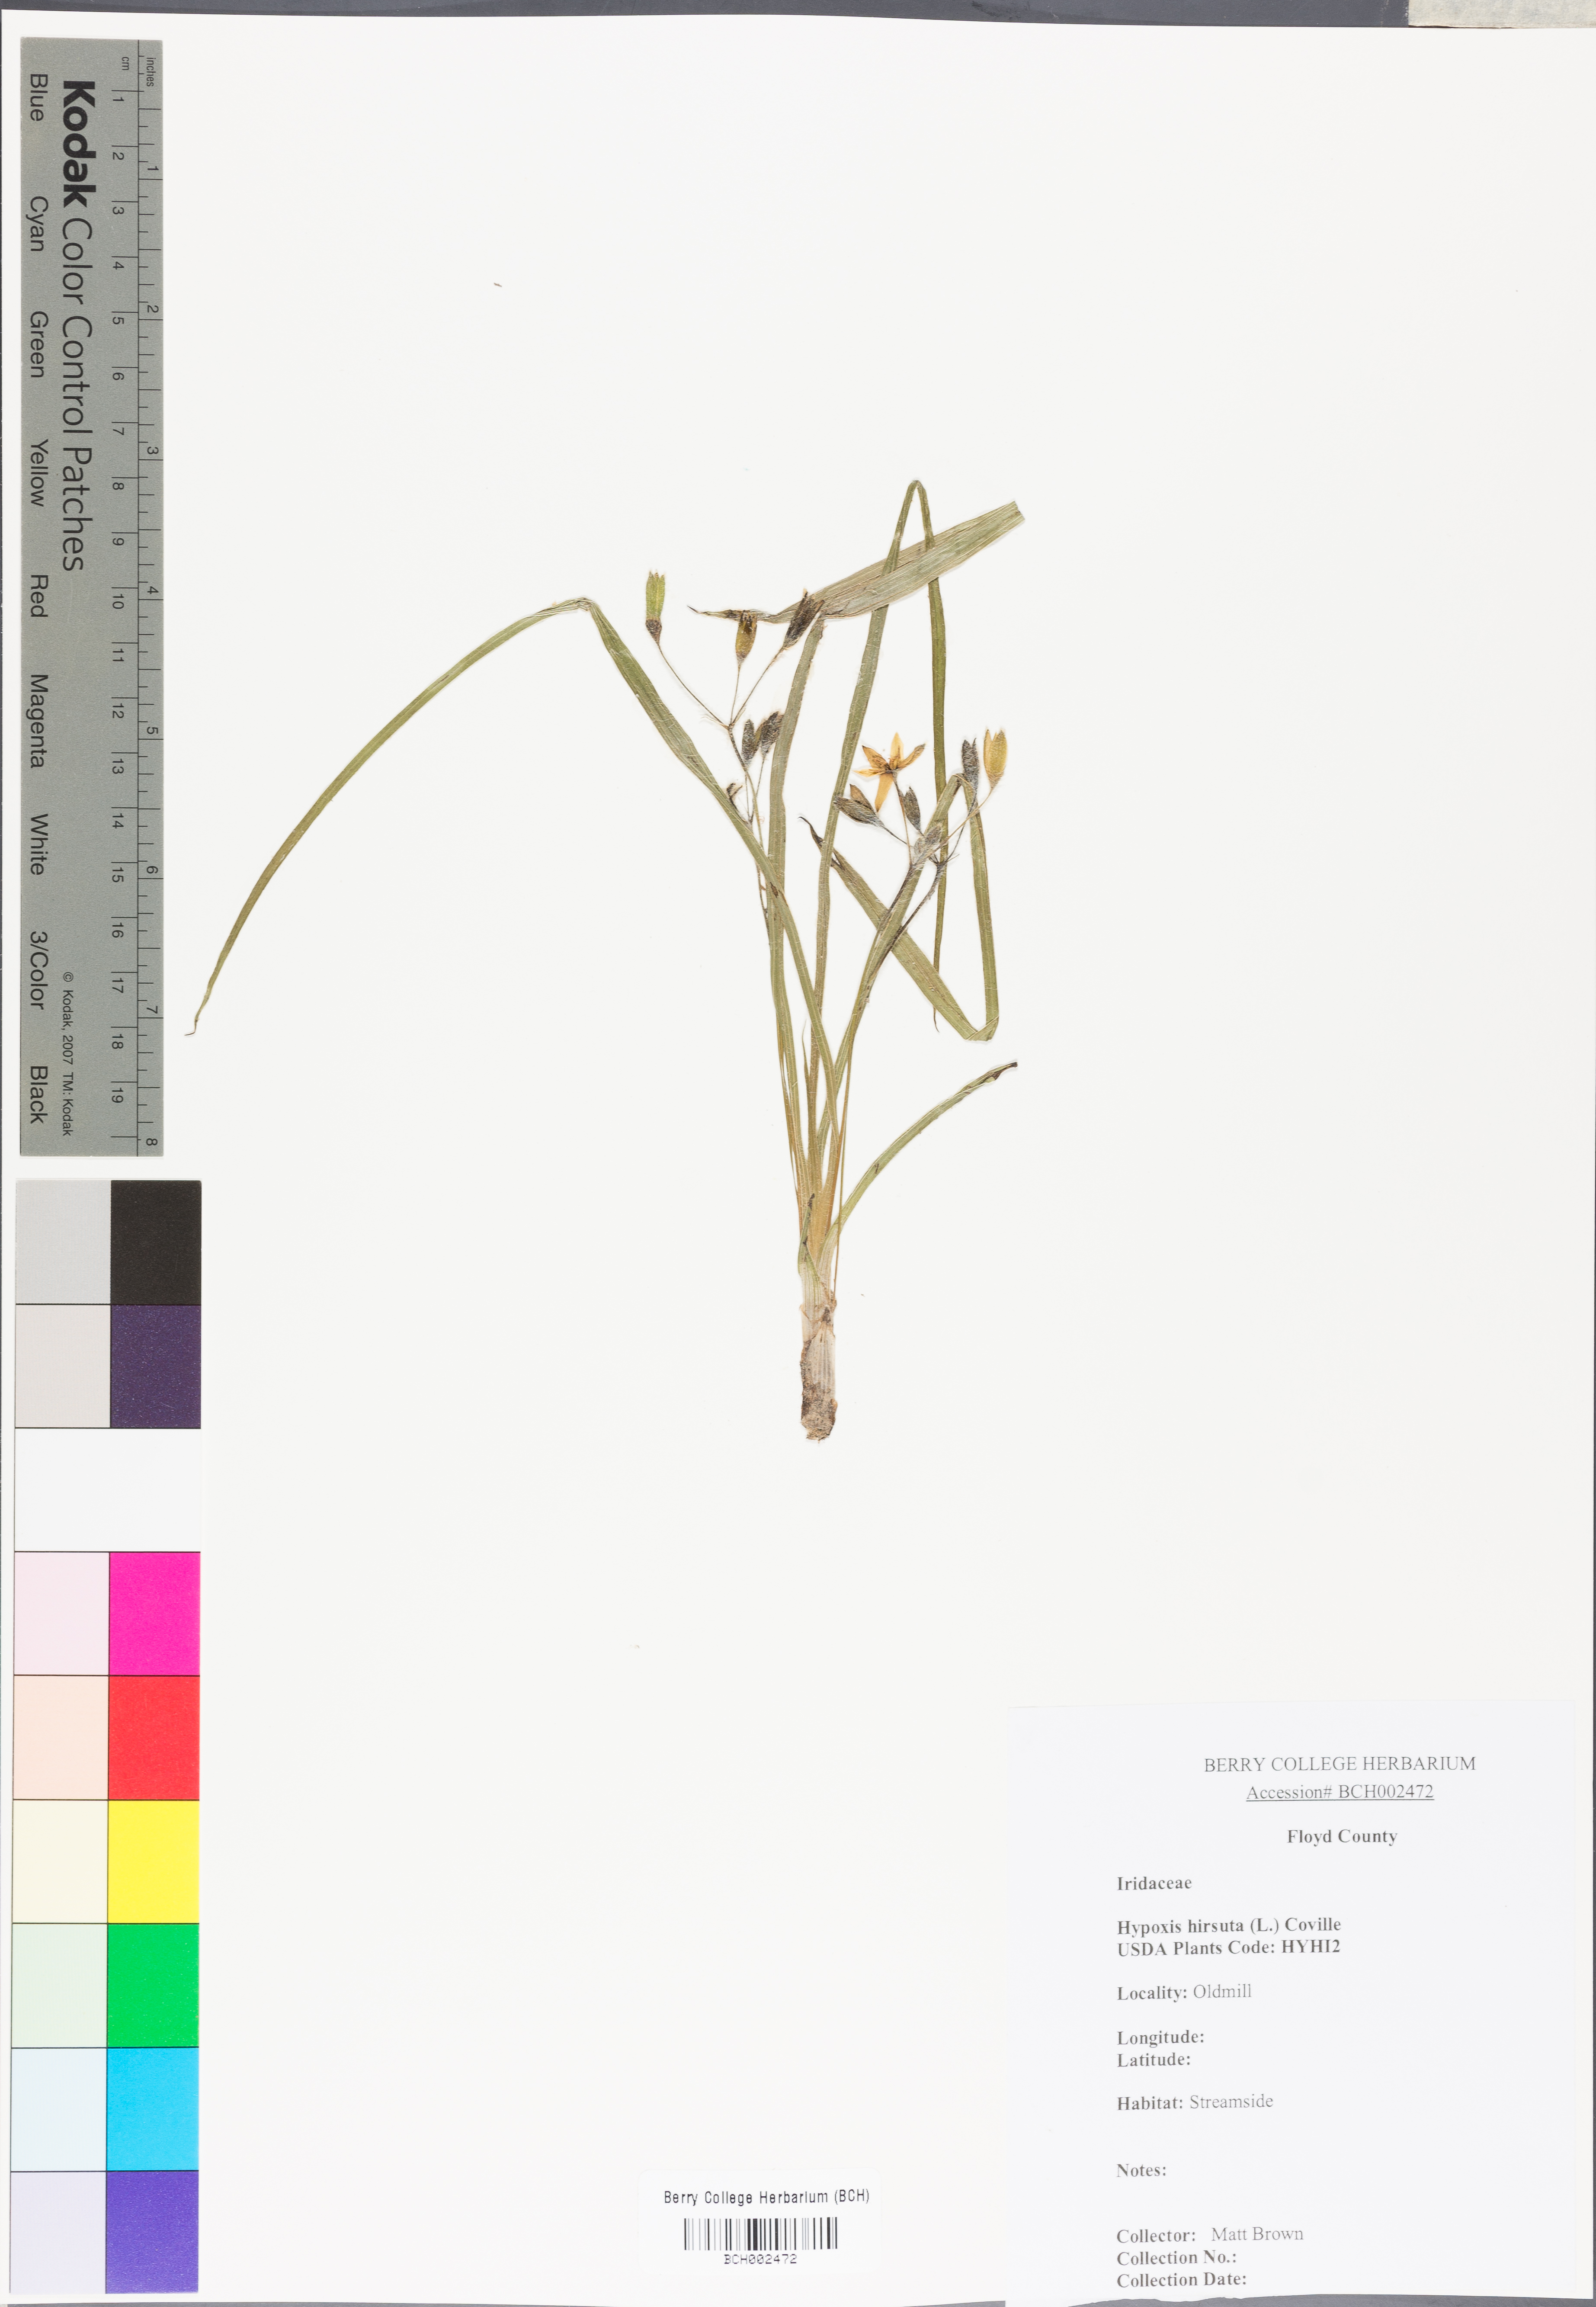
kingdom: Plantae
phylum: Tracheophyta
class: Liliopsida
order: Asparagales
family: Hypoxidaceae
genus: Hypoxis
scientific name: Hypoxis hirsuta
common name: Common goldstar
